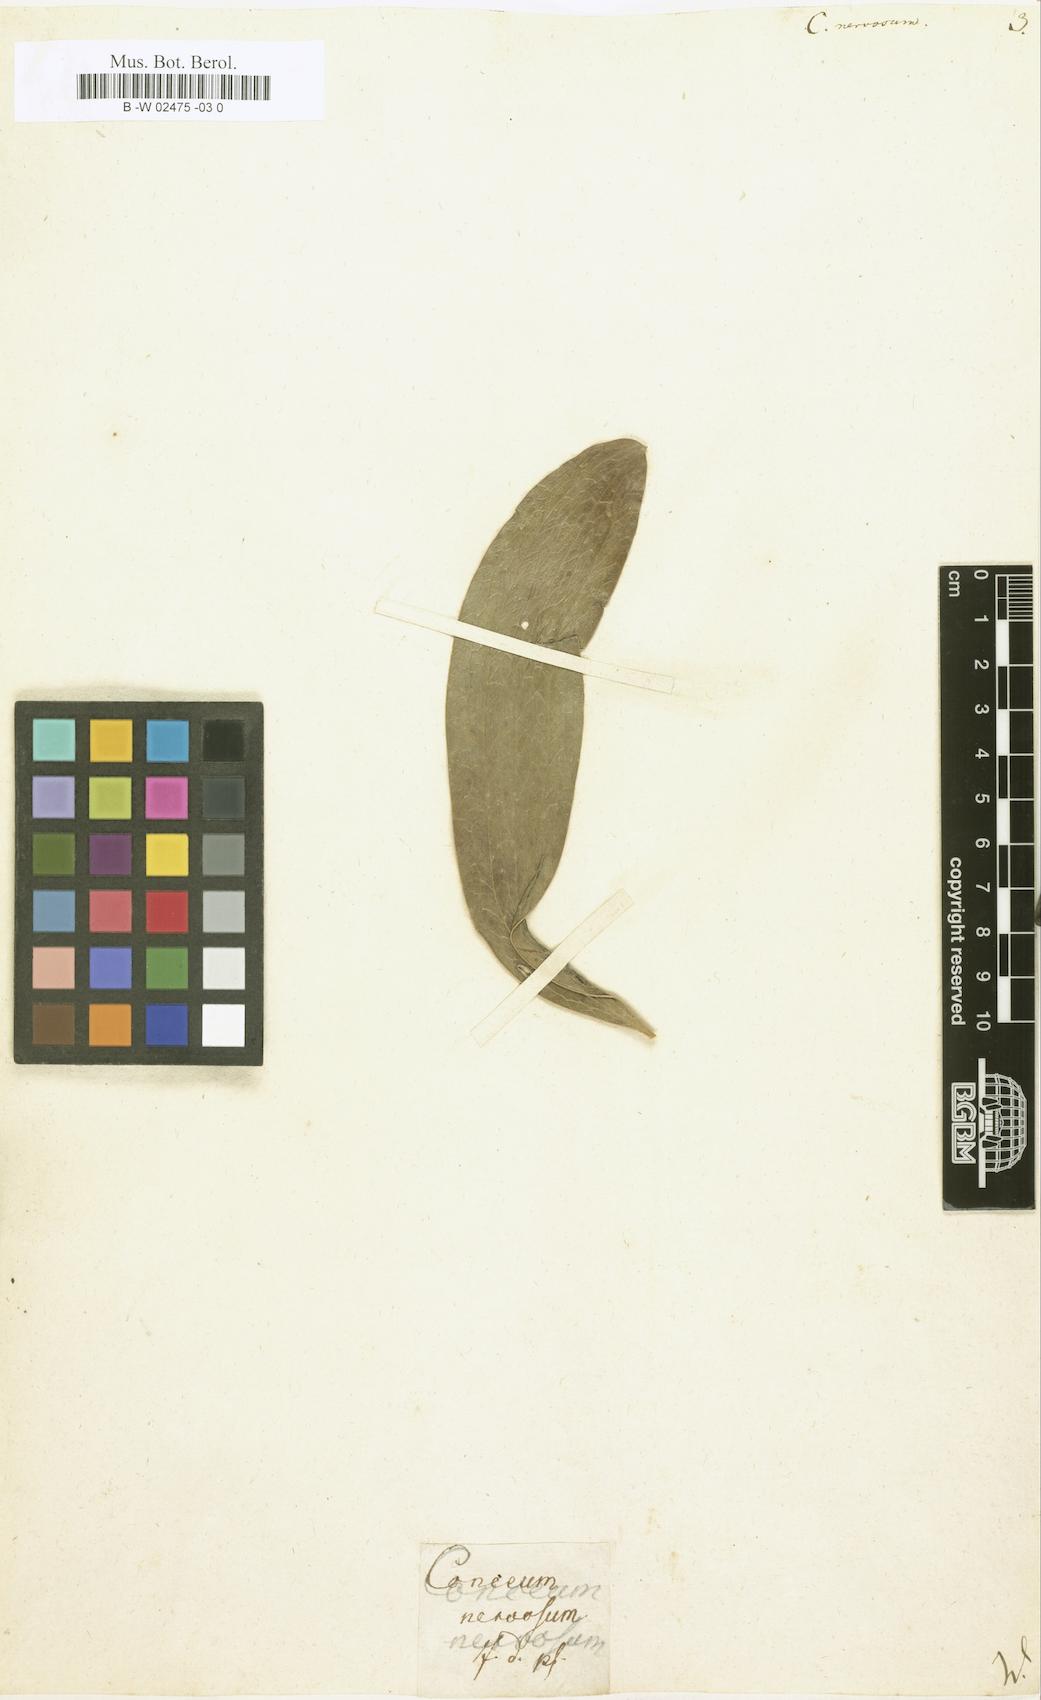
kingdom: Plantae
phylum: Tracheophyta
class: Magnoliopsida
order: Proteales
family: Proteaceae
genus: Hakea
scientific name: Hakea dactyloides
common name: Finger hakea
